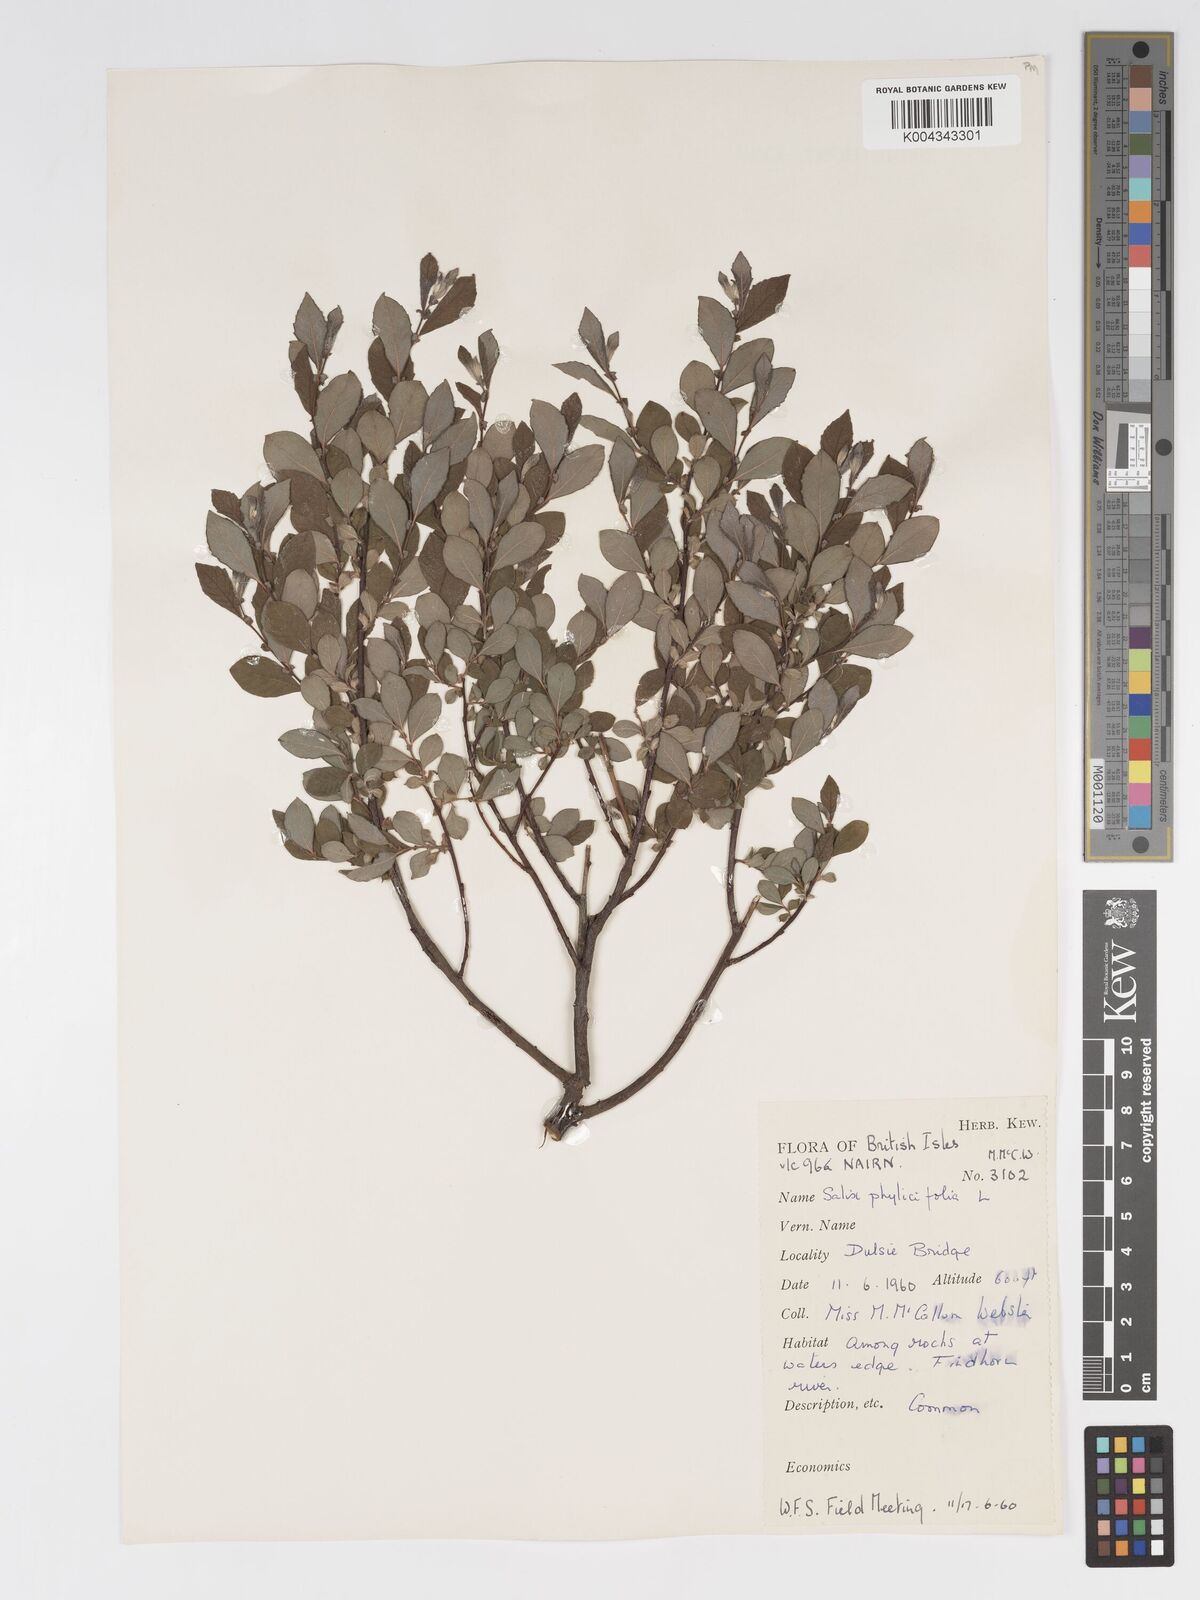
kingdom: Plantae
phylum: Tracheophyta
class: Magnoliopsida
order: Malpighiales
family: Salicaceae
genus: Salix
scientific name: Salix aurita
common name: Eared willow
